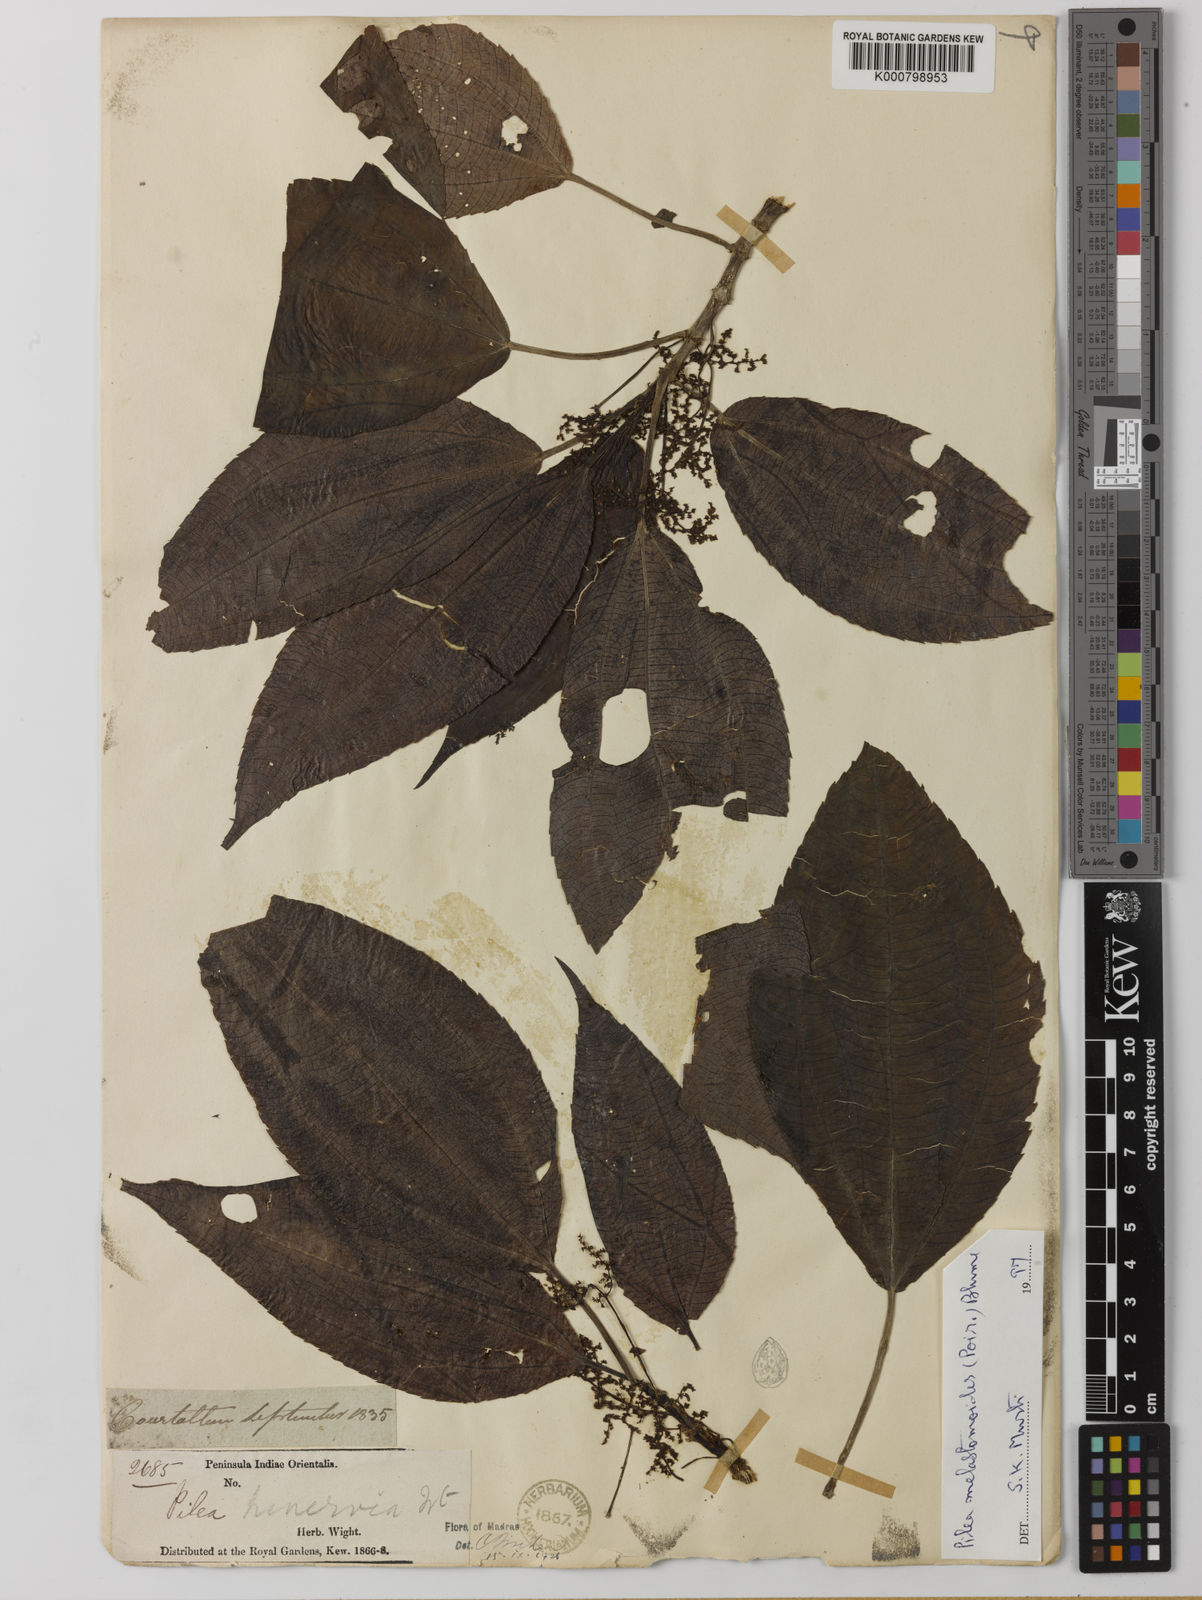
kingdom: Plantae
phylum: Tracheophyta
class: Magnoliopsida
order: Rosales
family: Urticaceae
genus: Pilea
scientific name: Pilea melastomoides
